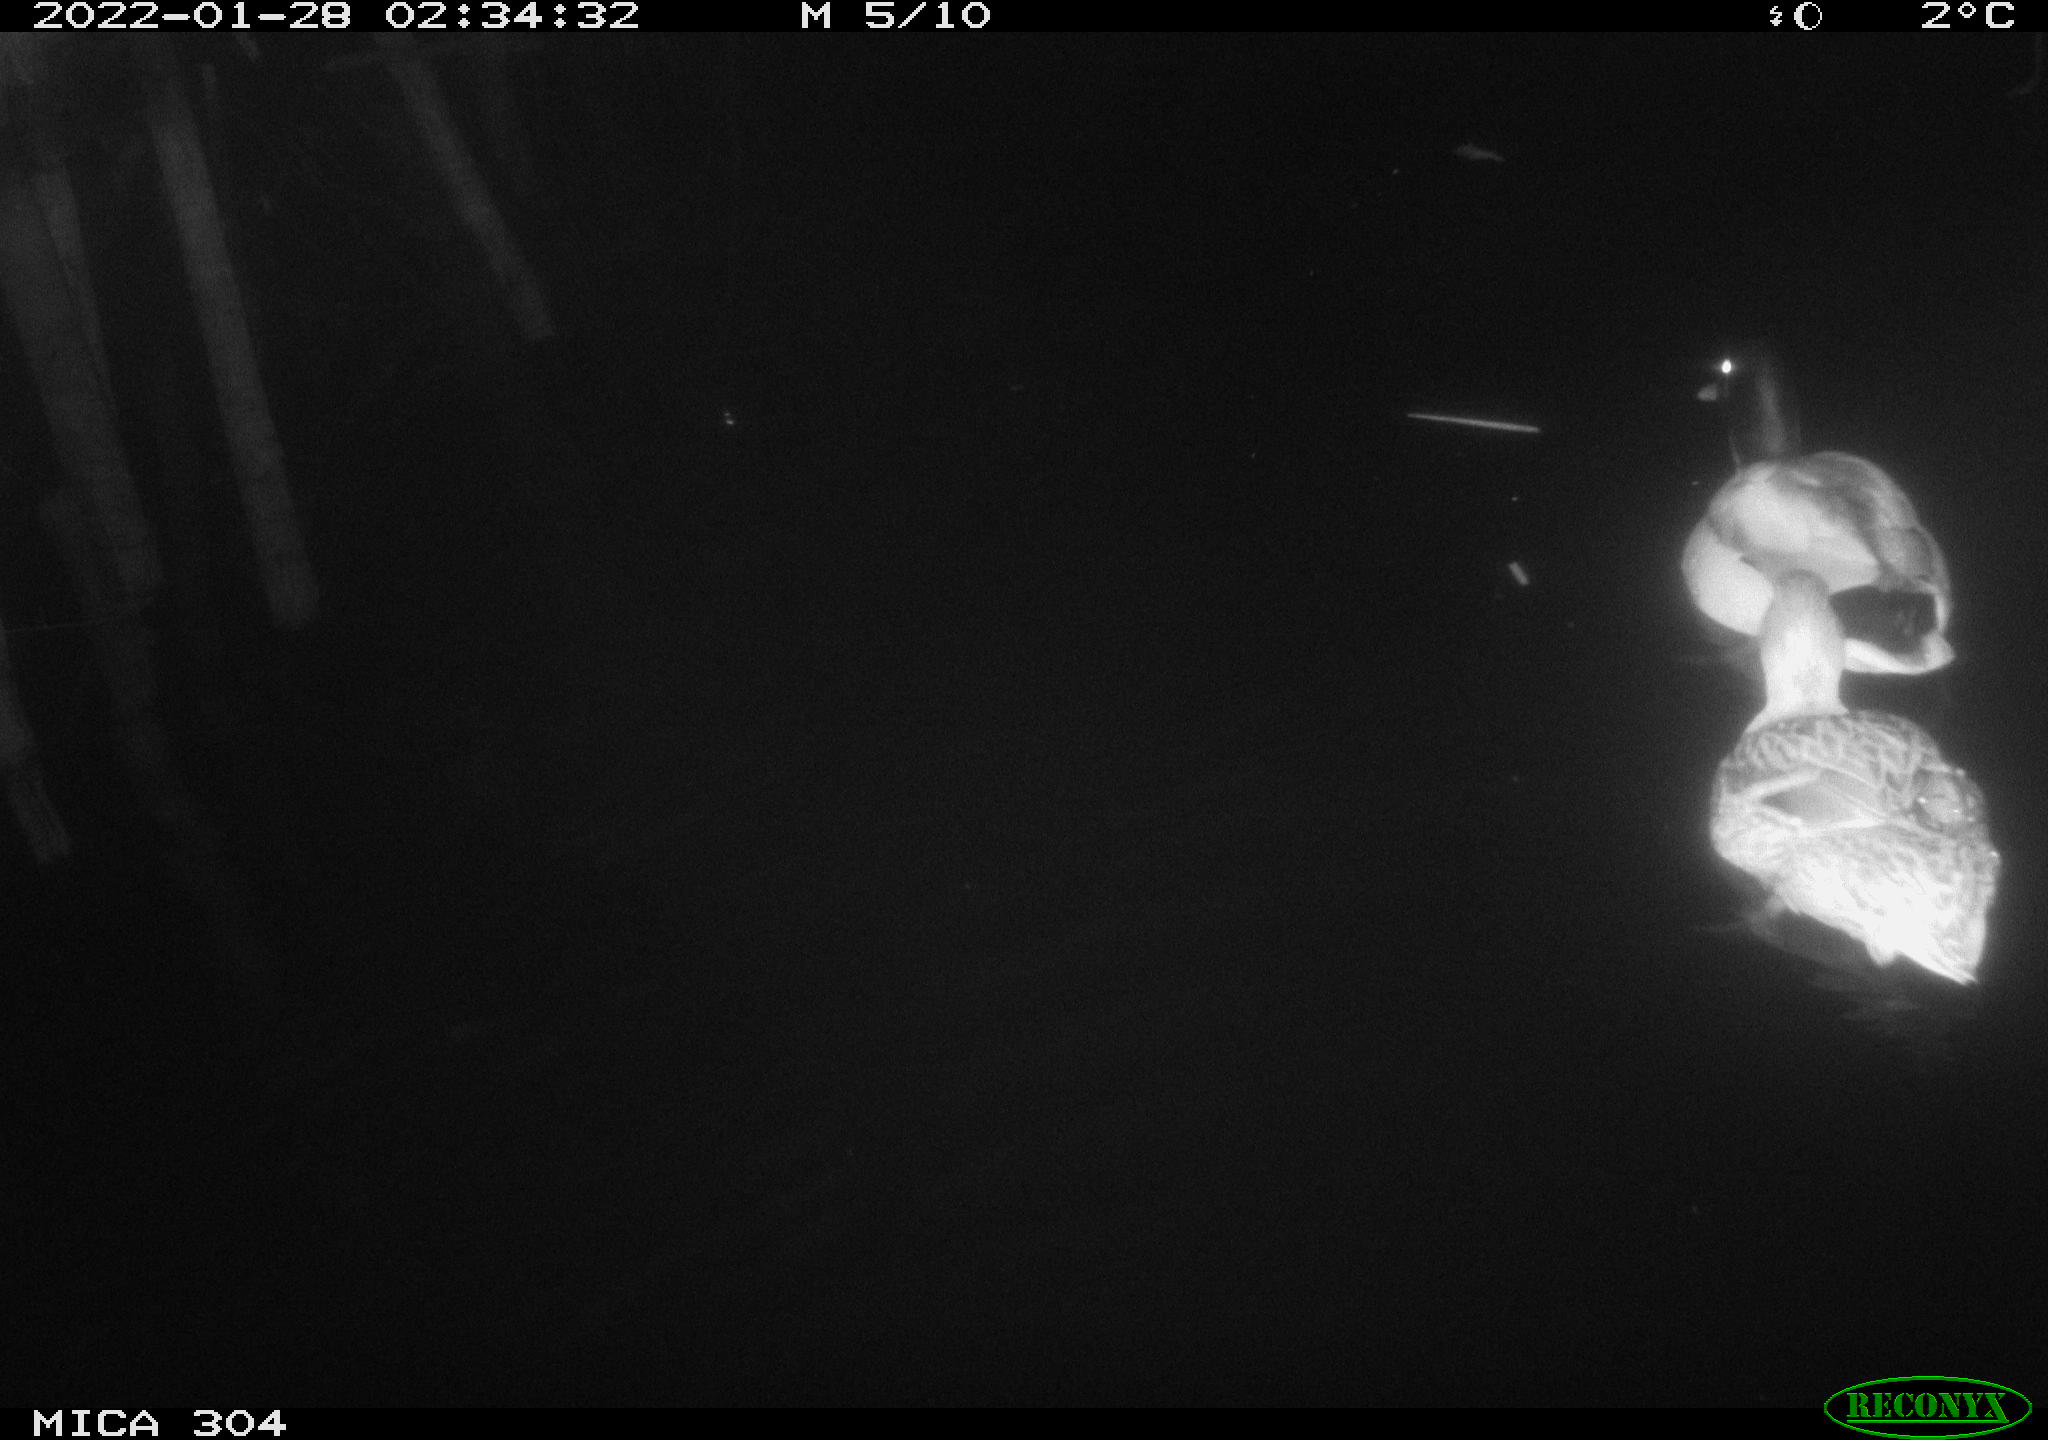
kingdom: Animalia
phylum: Chordata
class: Aves
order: Anseriformes
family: Anatidae
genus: Anas
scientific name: Anas
